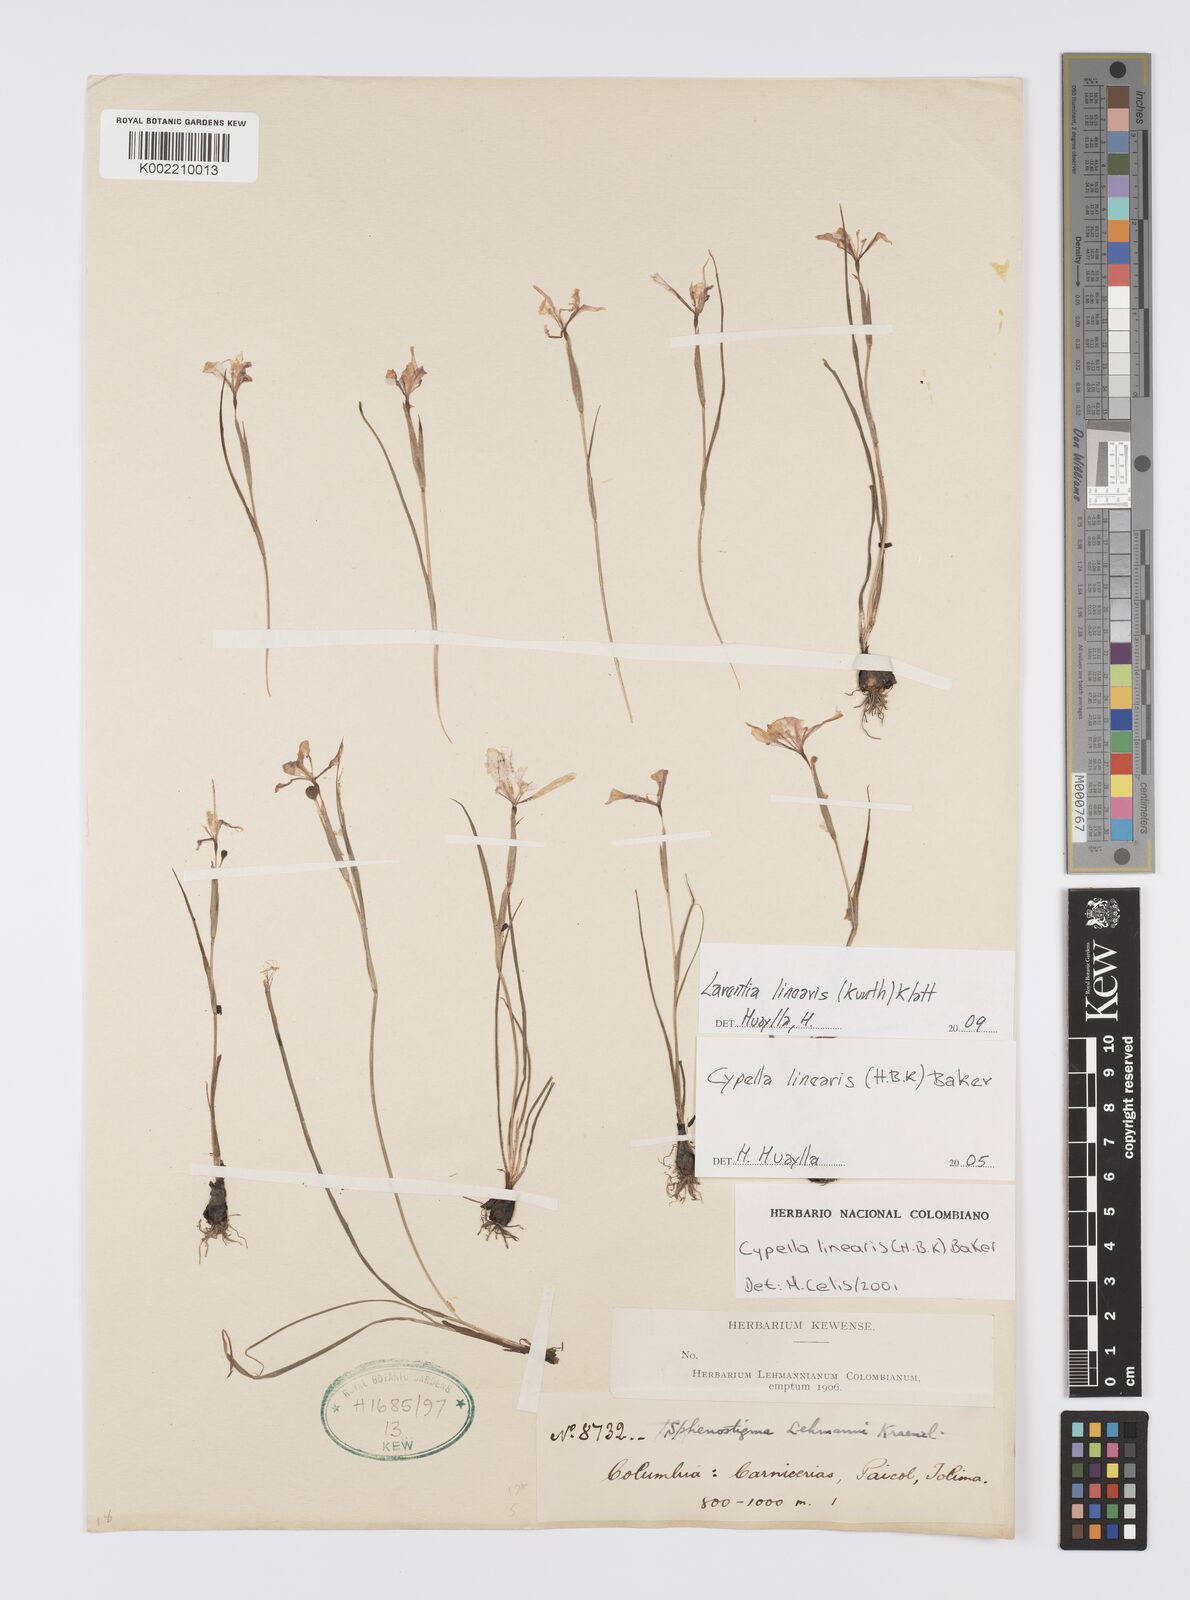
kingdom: Plantae
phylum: Tracheophyta
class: Liliopsida
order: Asparagales
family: Iridaceae
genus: Larentia
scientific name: Larentia linearis
